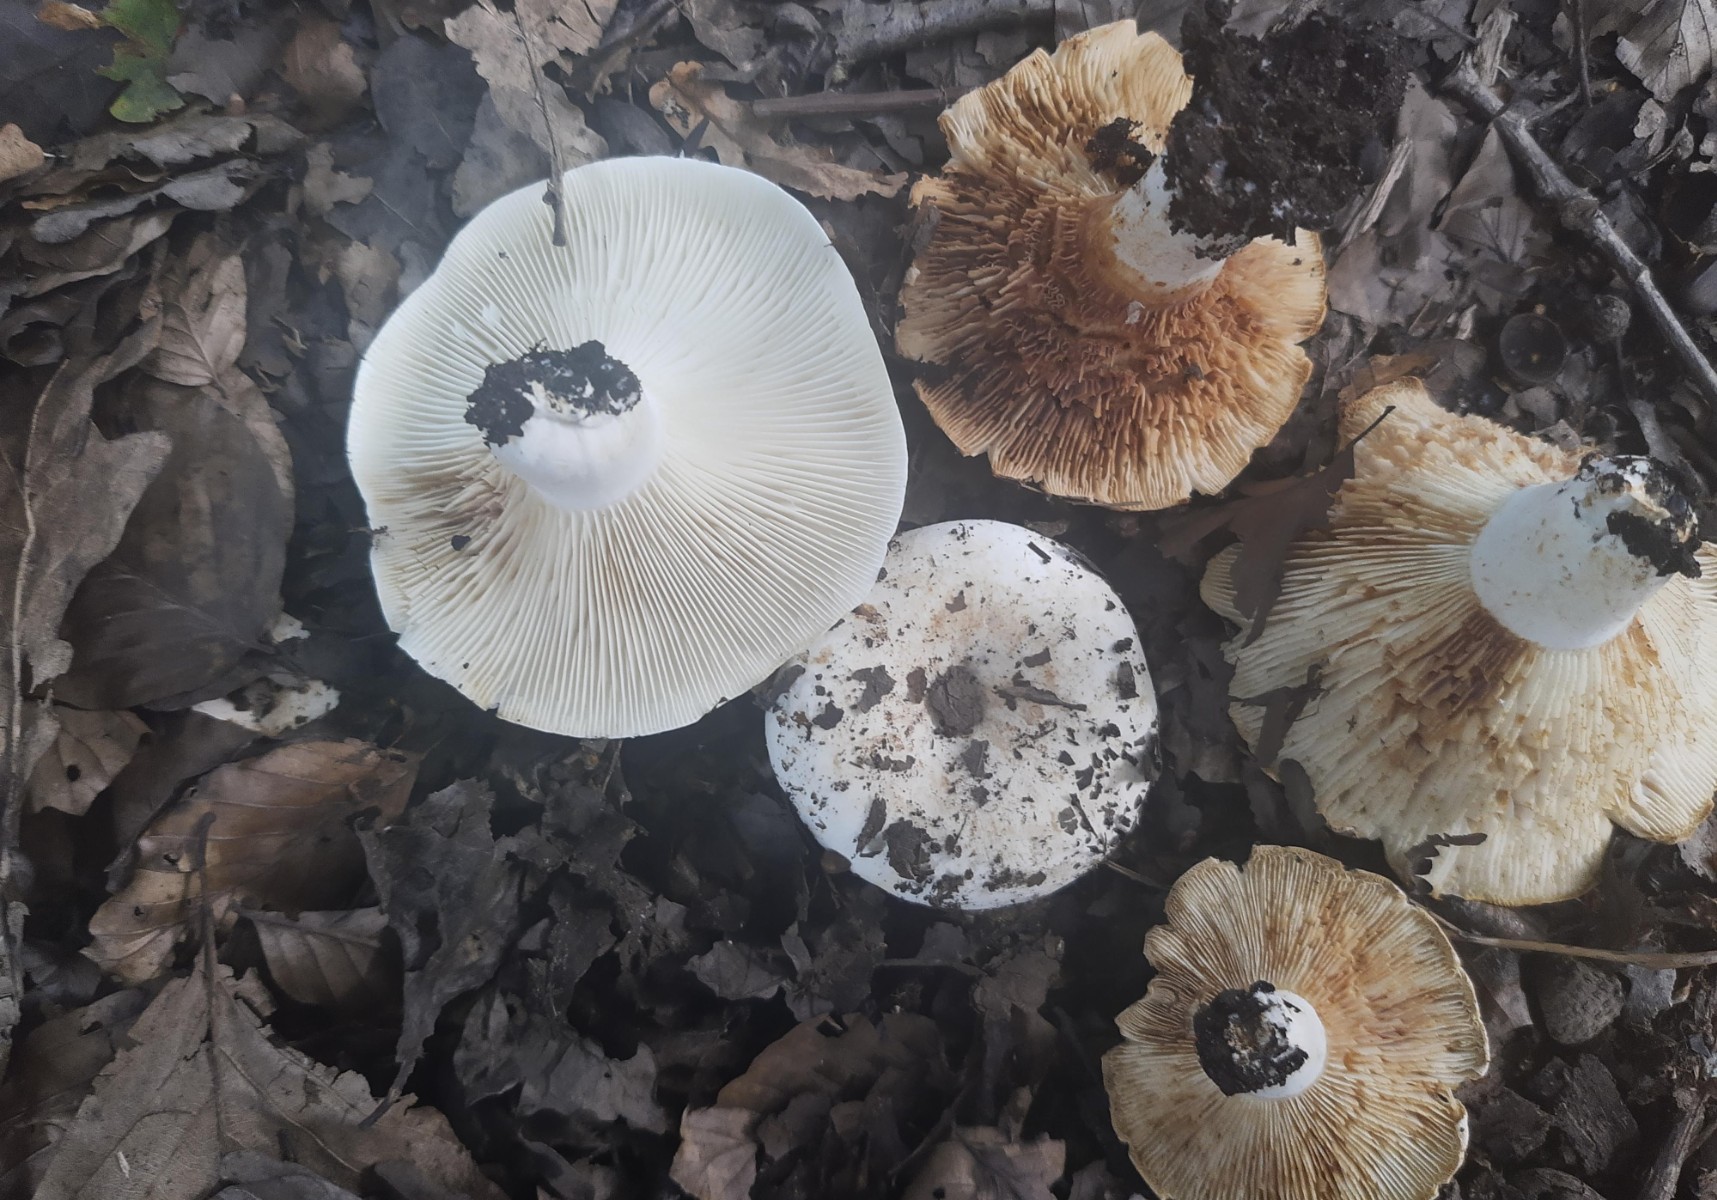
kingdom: Fungi
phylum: Basidiomycota
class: Agaricomycetes
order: Russulales
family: Russulaceae
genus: Russula
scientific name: Russula delica
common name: almindelig tragt-skørhat
